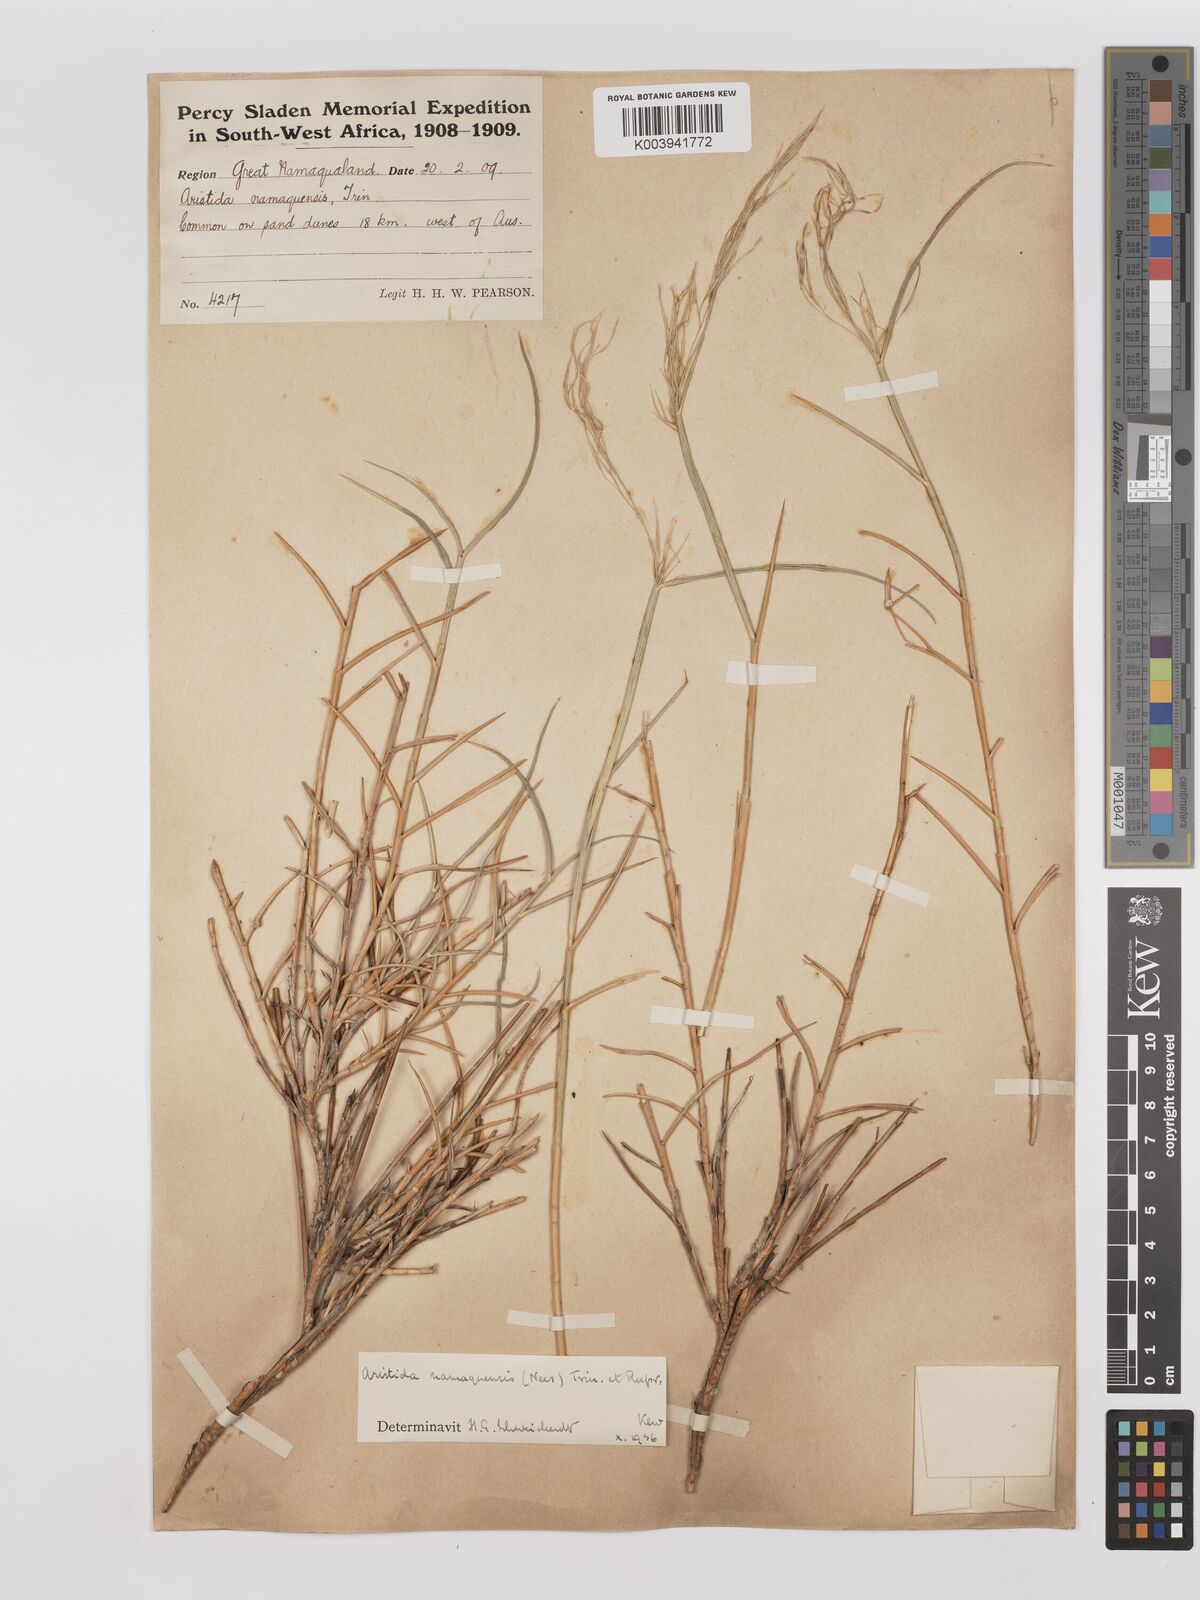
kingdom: Plantae
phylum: Tracheophyta
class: Liliopsida
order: Poales
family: Poaceae
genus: Stipagrostis
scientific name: Stipagrostis namaquensis
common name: River bushman grass
